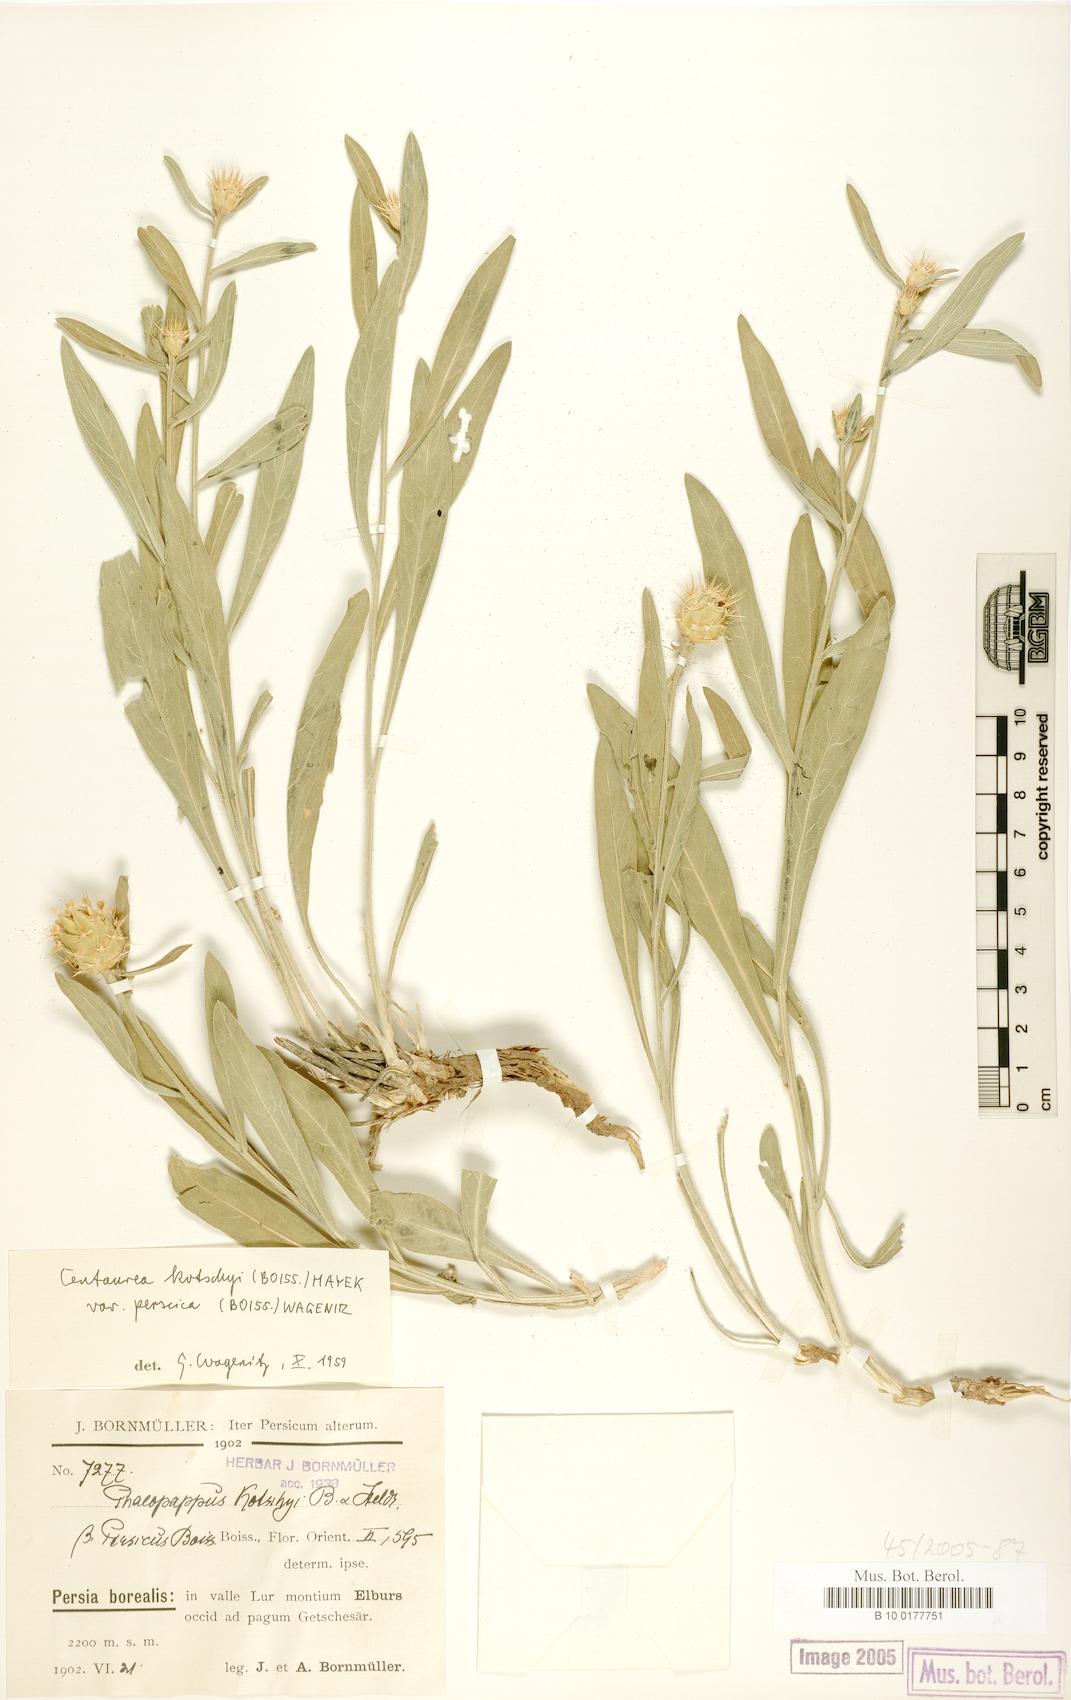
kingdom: Plantae
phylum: Tracheophyta
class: Magnoliopsida
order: Asterales
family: Asteraceae
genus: Centaurea
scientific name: Centaurea kotschyi
